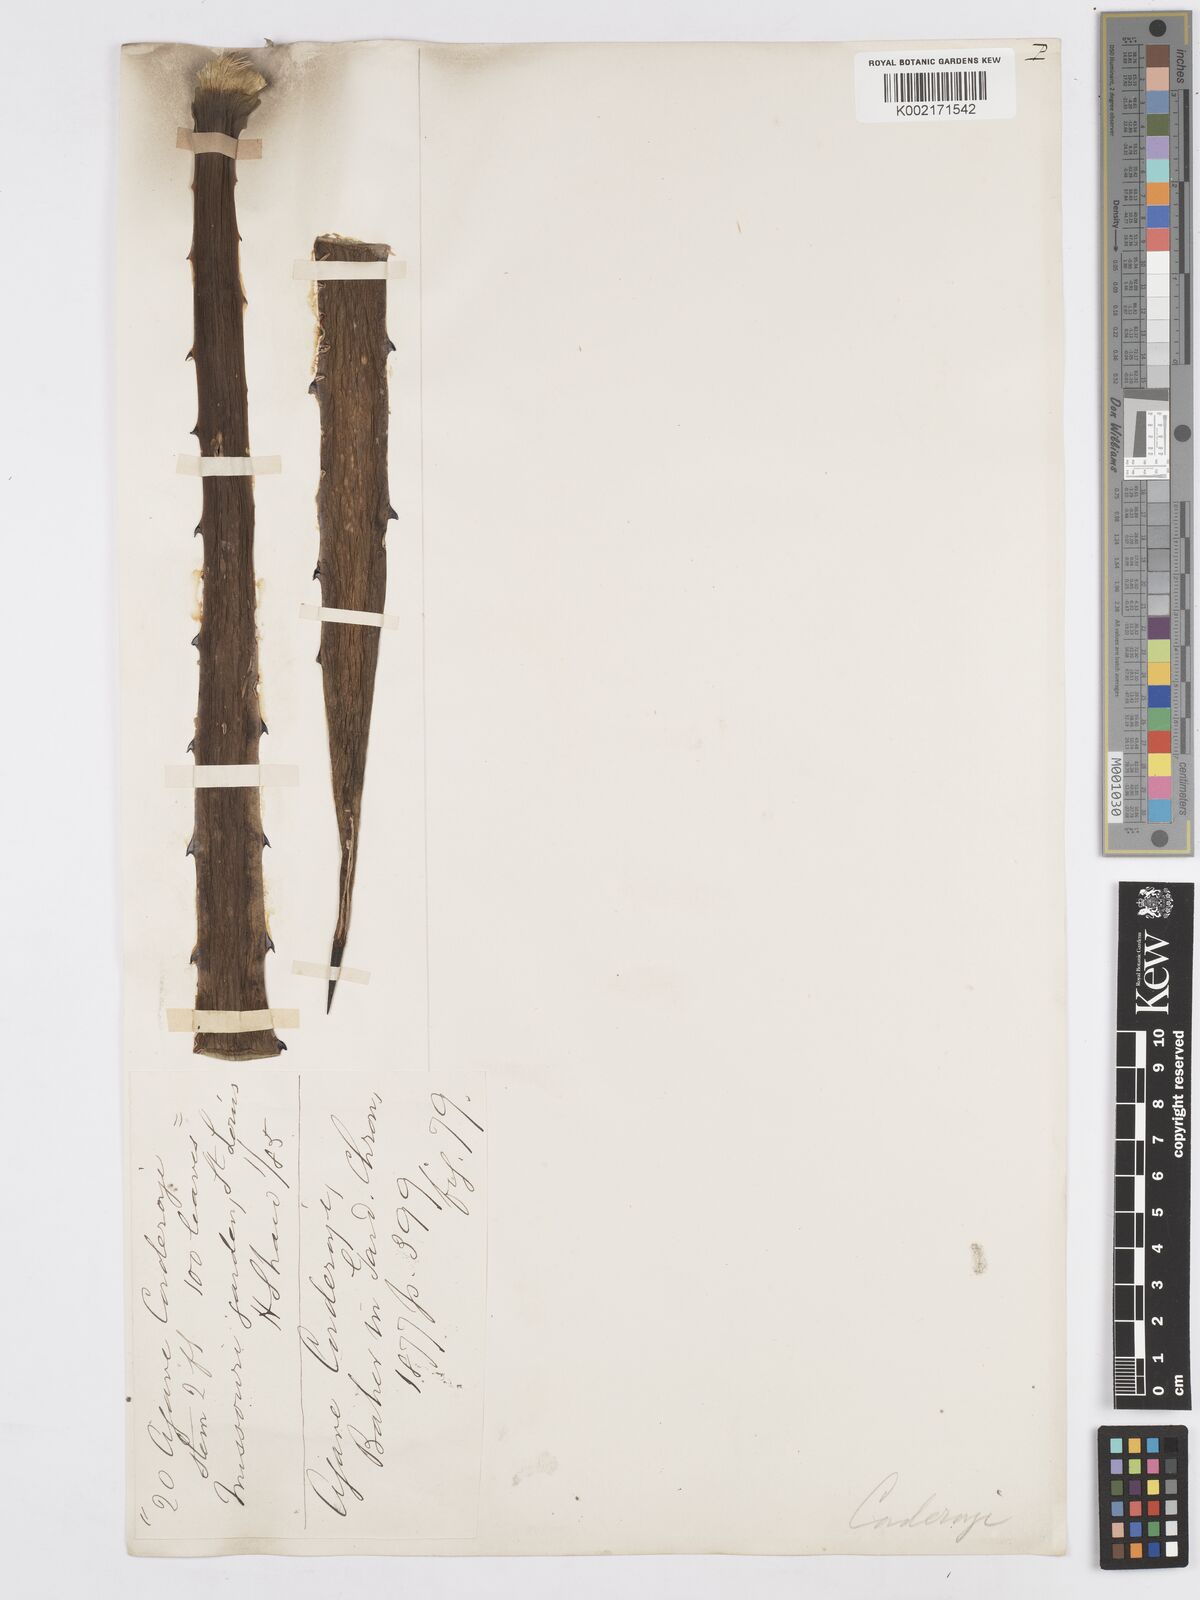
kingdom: Plantae
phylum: Tracheophyta
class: Liliopsida
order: Asparagales
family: Asparagaceae
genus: Agave
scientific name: Agave karwinskii
